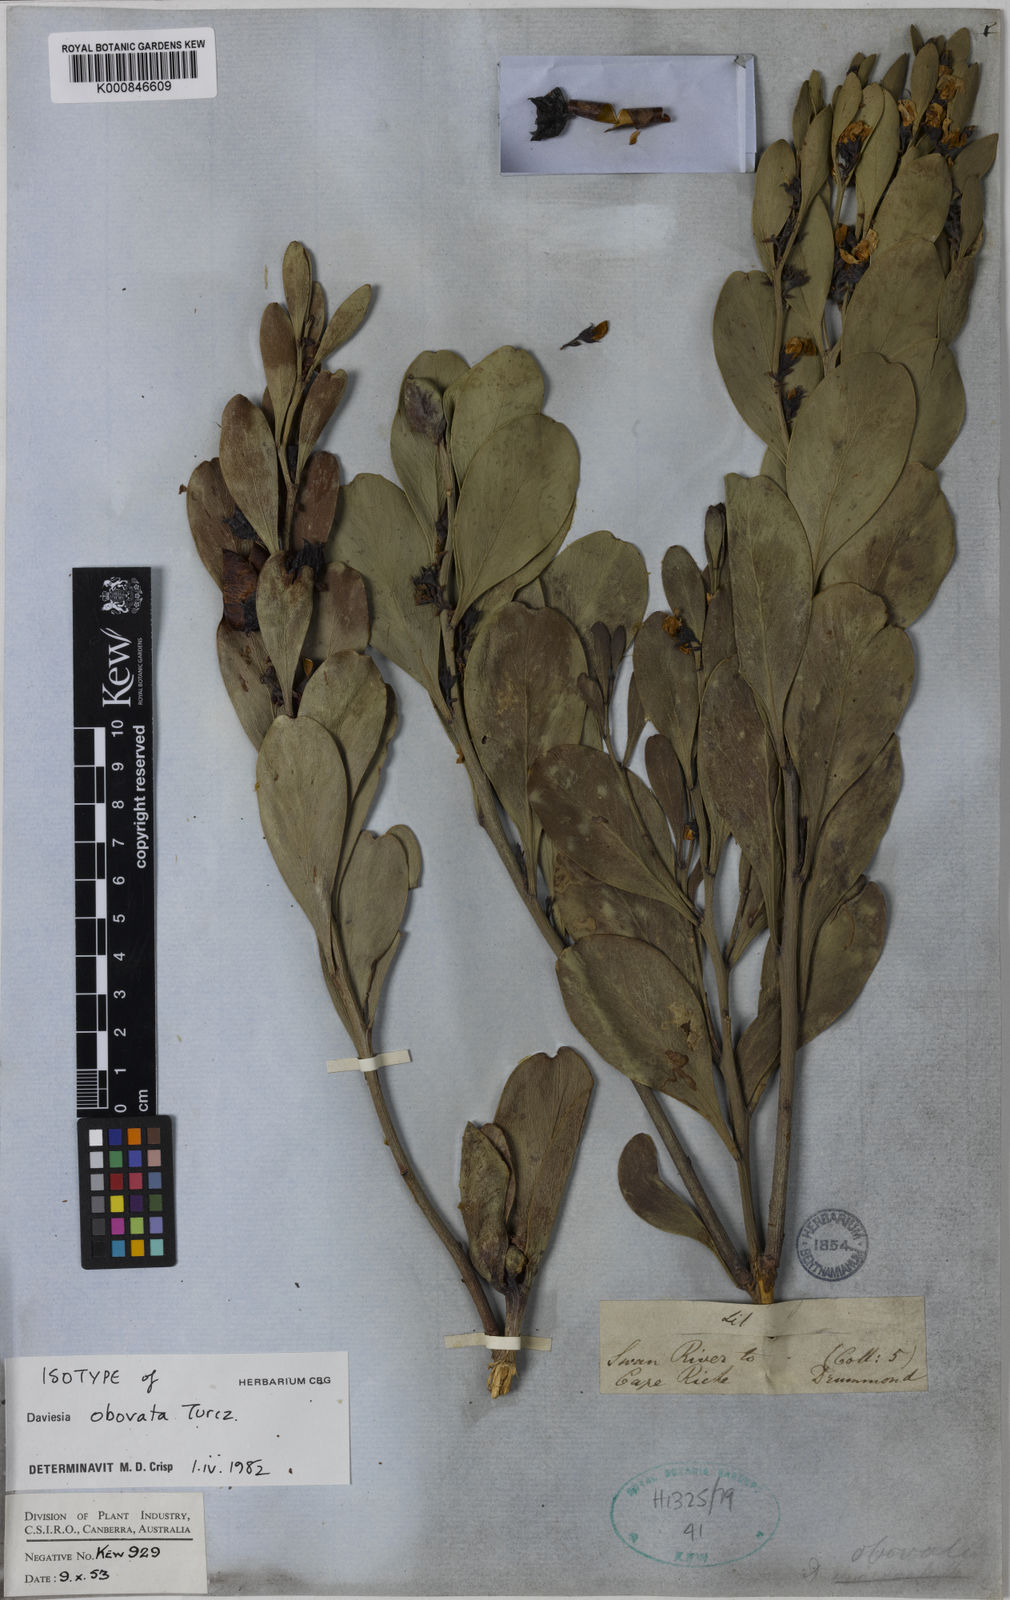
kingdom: Plantae
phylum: Tracheophyta
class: Magnoliopsida
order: Fabales
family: Fabaceae
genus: Daviesia
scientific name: Daviesia obovata
